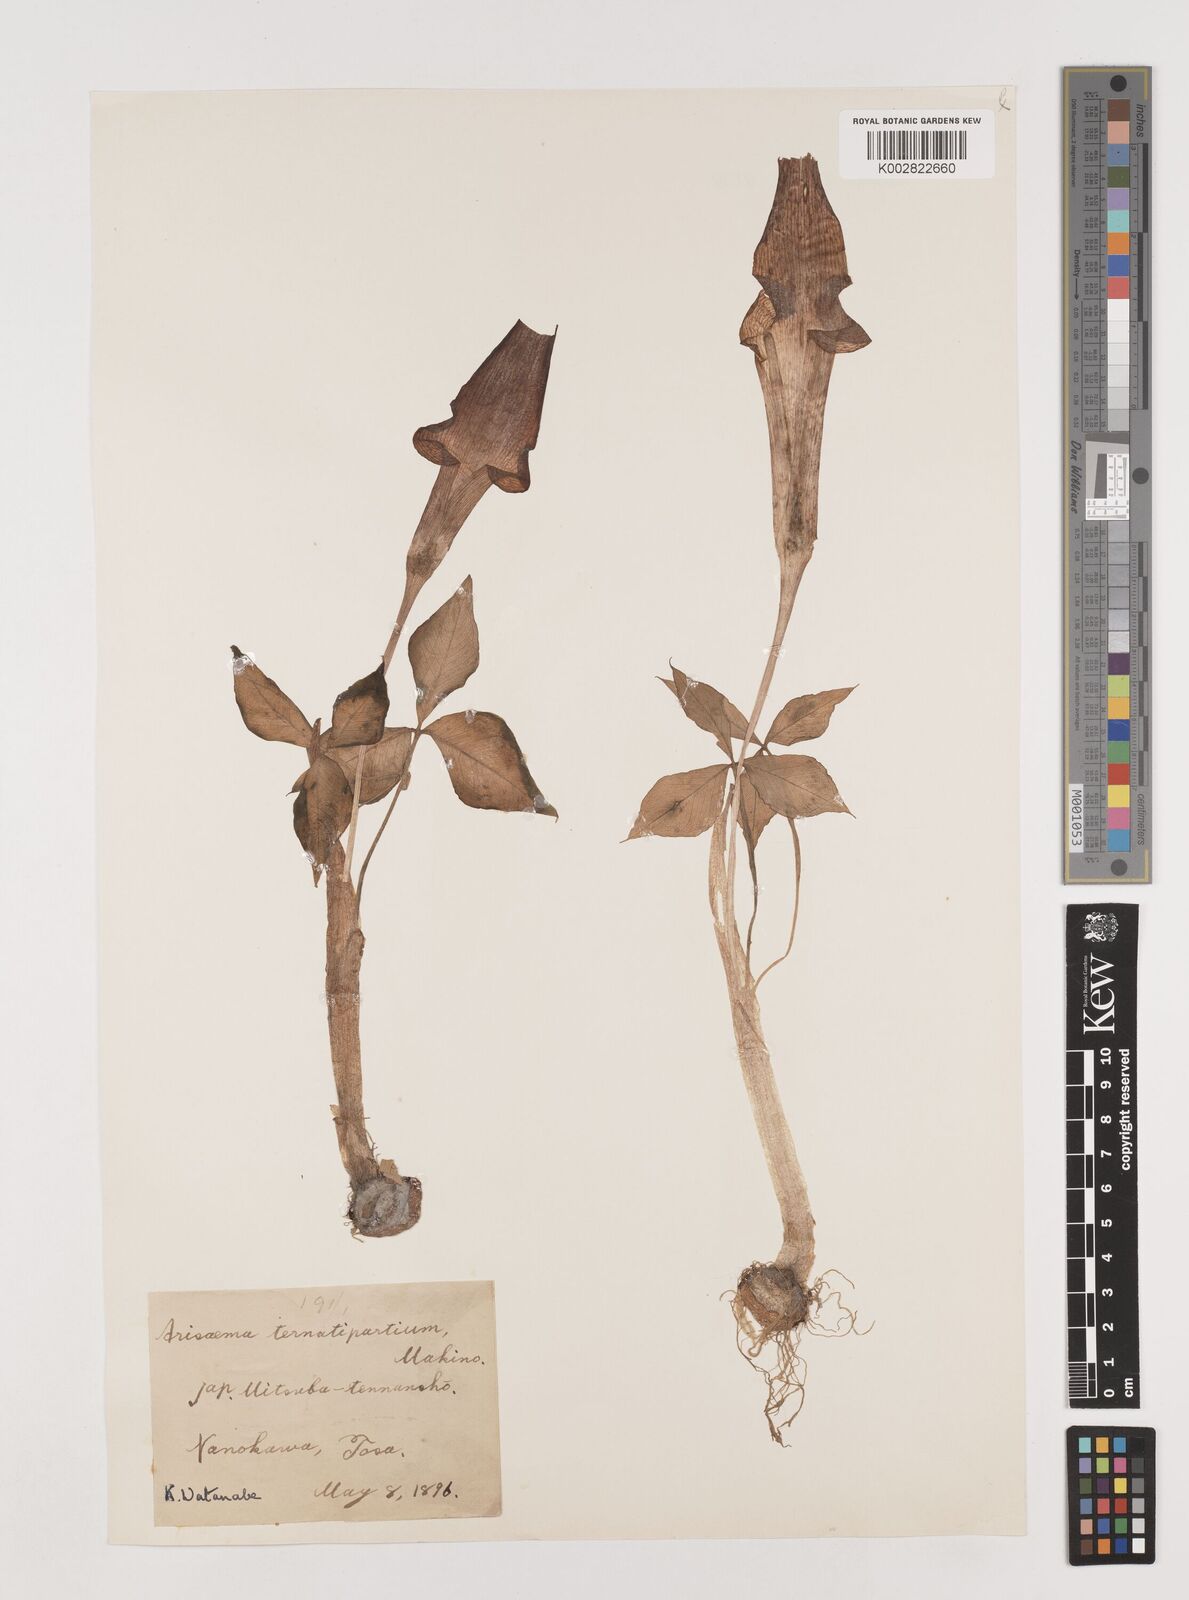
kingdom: Plantae
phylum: Tracheophyta
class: Liliopsida
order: Alismatales
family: Araceae
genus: Arisaema
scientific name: Arisaema ternatipartitum
